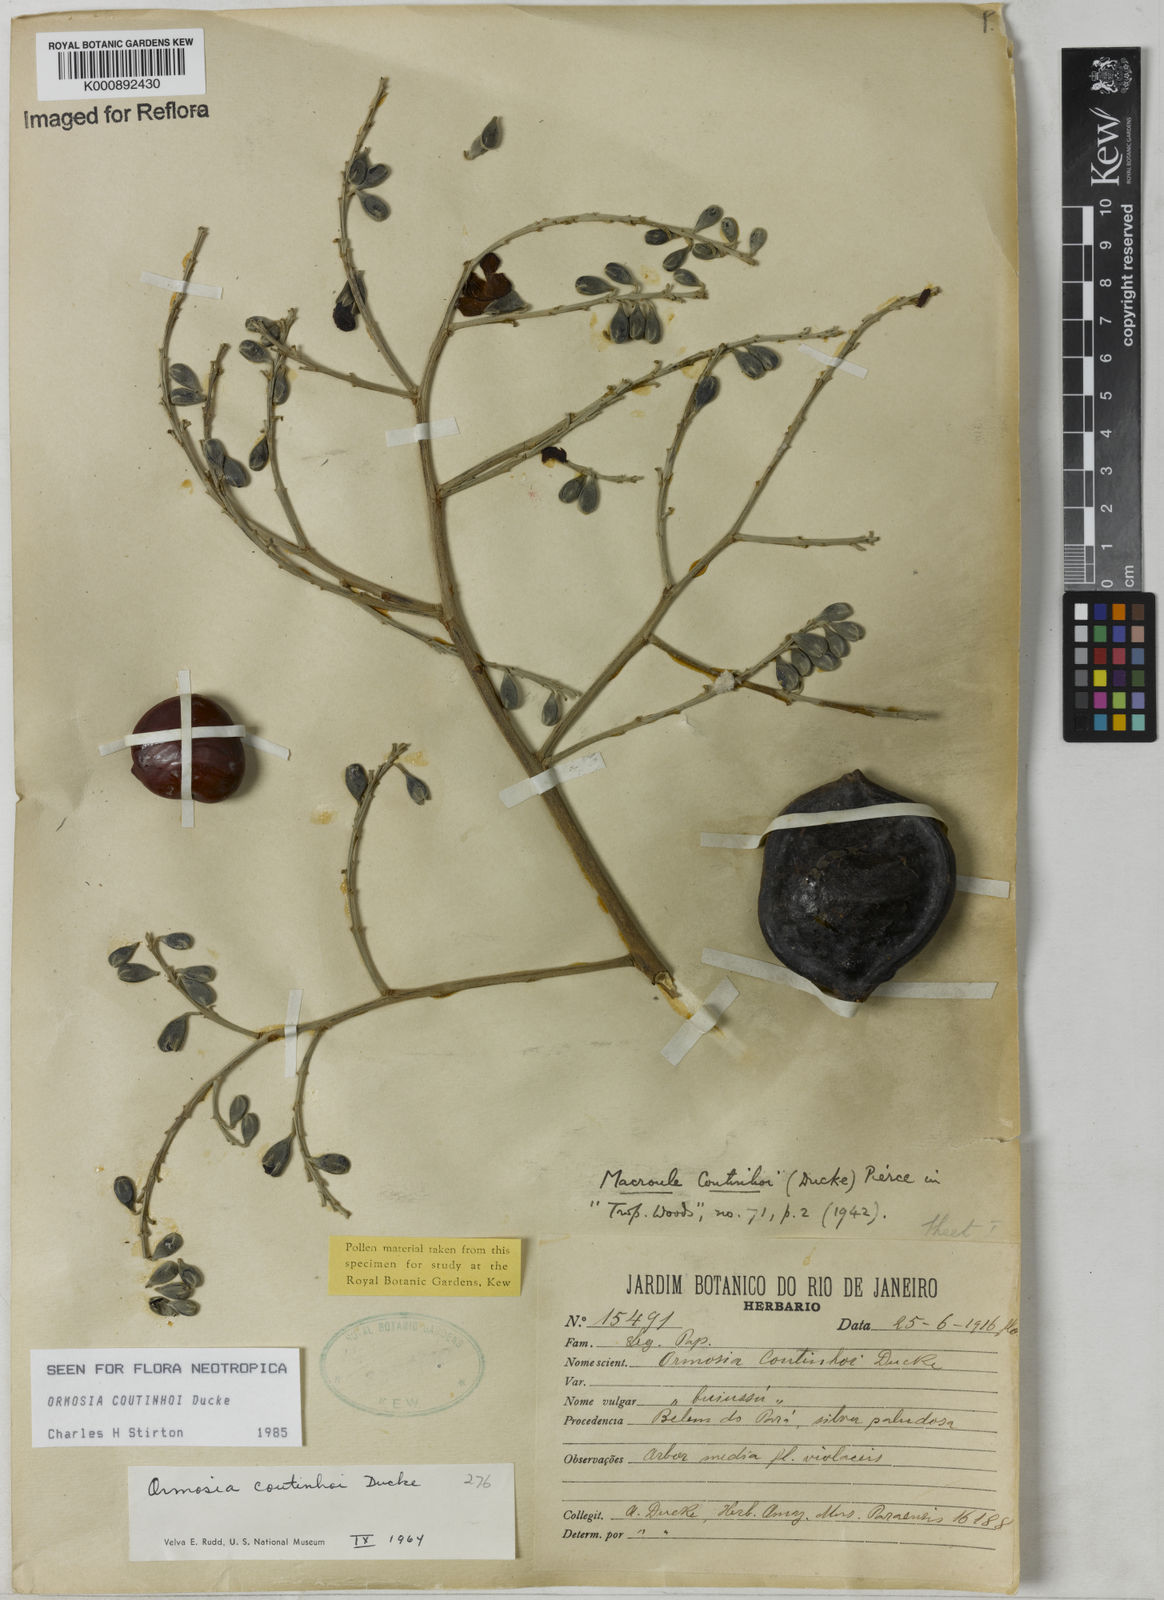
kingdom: Plantae
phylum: Tracheophyta
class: Magnoliopsida
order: Fabales
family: Fabaceae
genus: Ormosia
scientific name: Ormosia coutinhoi
